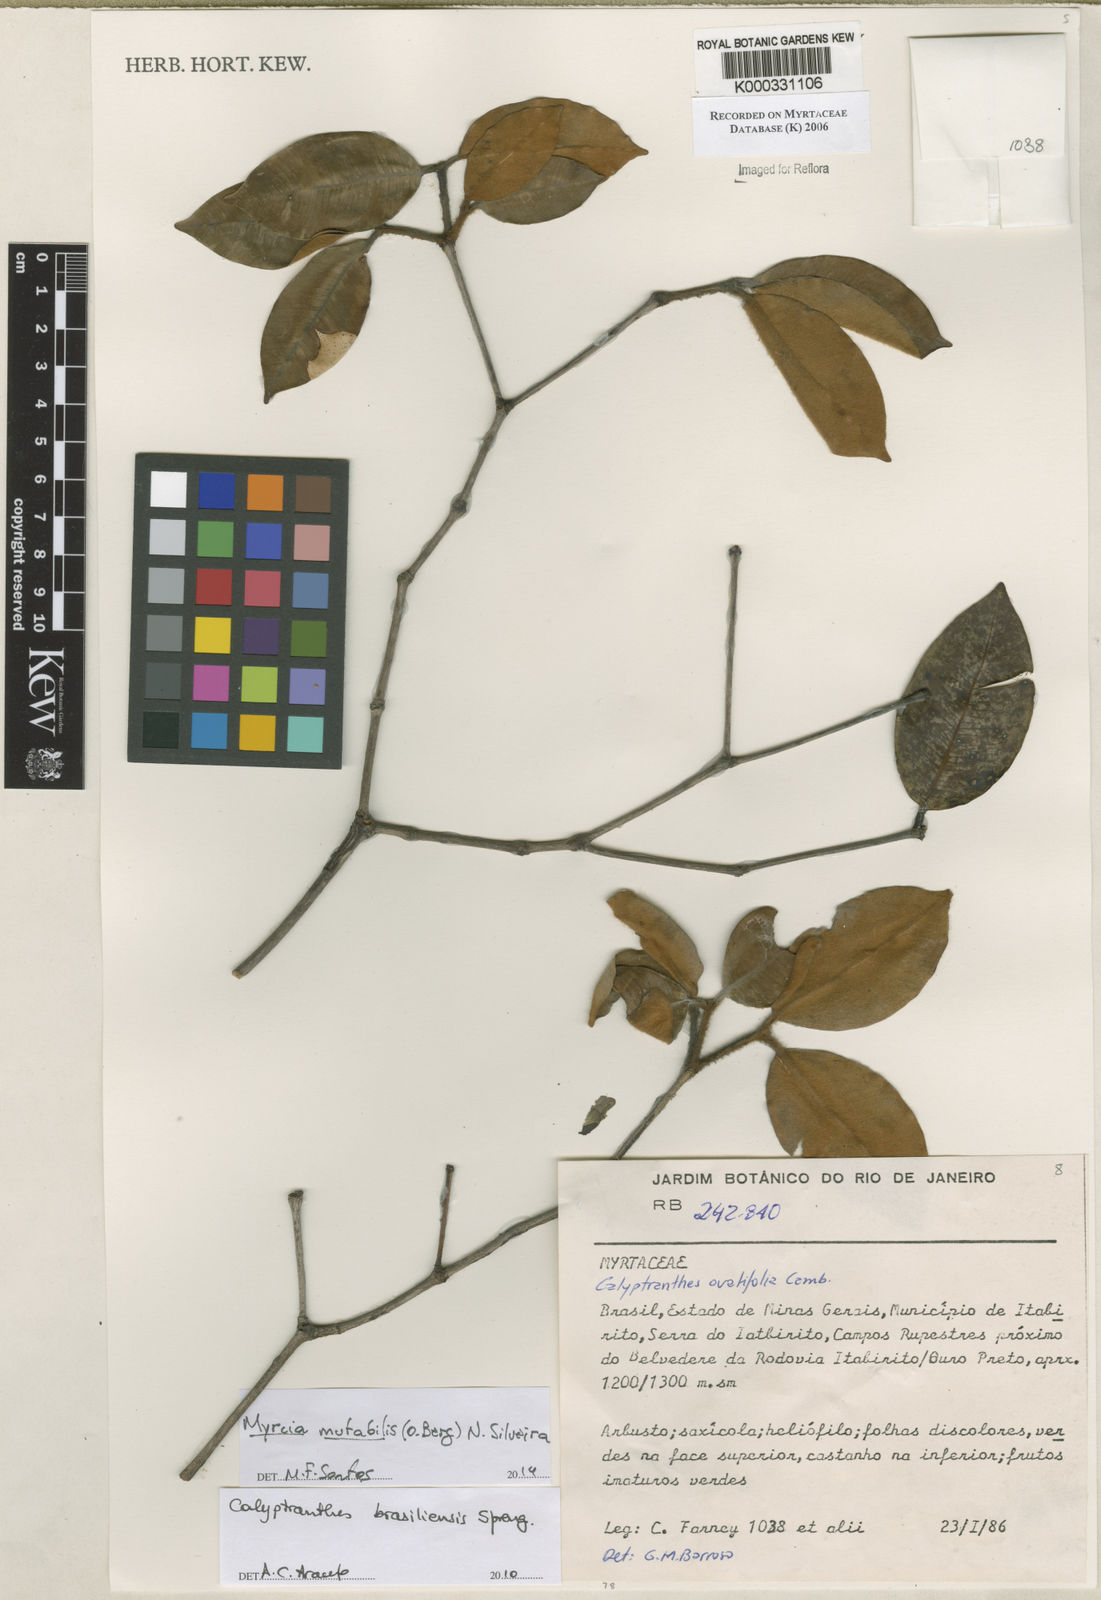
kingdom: Plantae
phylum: Tracheophyta
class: Magnoliopsida
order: Myrtales
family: Myrtaceae
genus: Calyptranthes
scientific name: Calyptranthes ovalifolia
